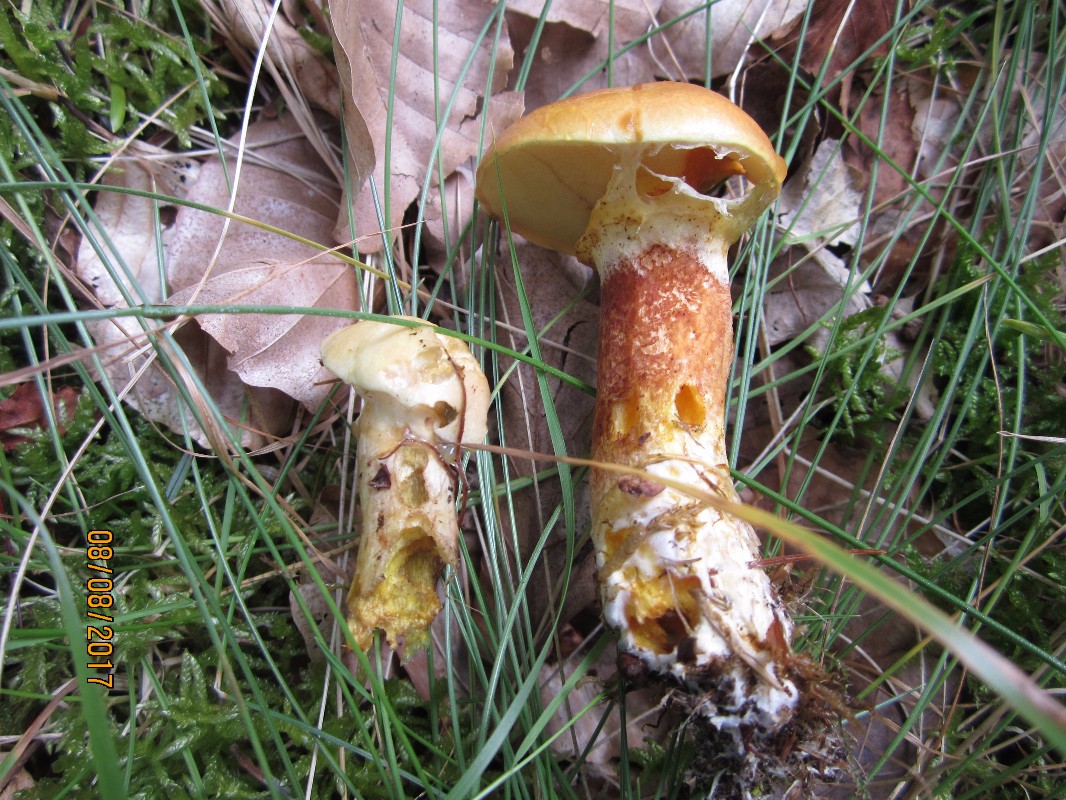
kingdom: Fungi
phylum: Basidiomycota
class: Agaricomycetes
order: Boletales
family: Suillaceae
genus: Suillus
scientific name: Suillus grevillei
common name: lærke-slimrørhat
